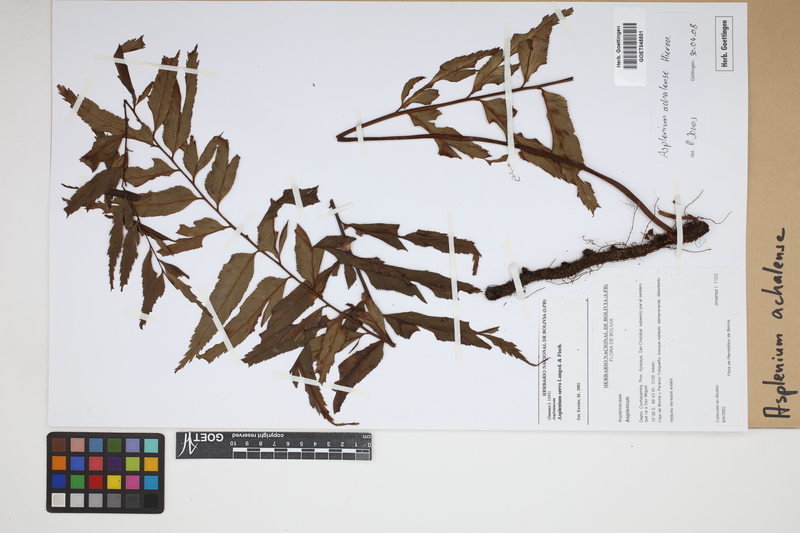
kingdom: Plantae
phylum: Tracheophyta
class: Polypodiopsida
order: Polypodiales
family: Aspleniaceae
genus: Asplenium
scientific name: Asplenium achalense
